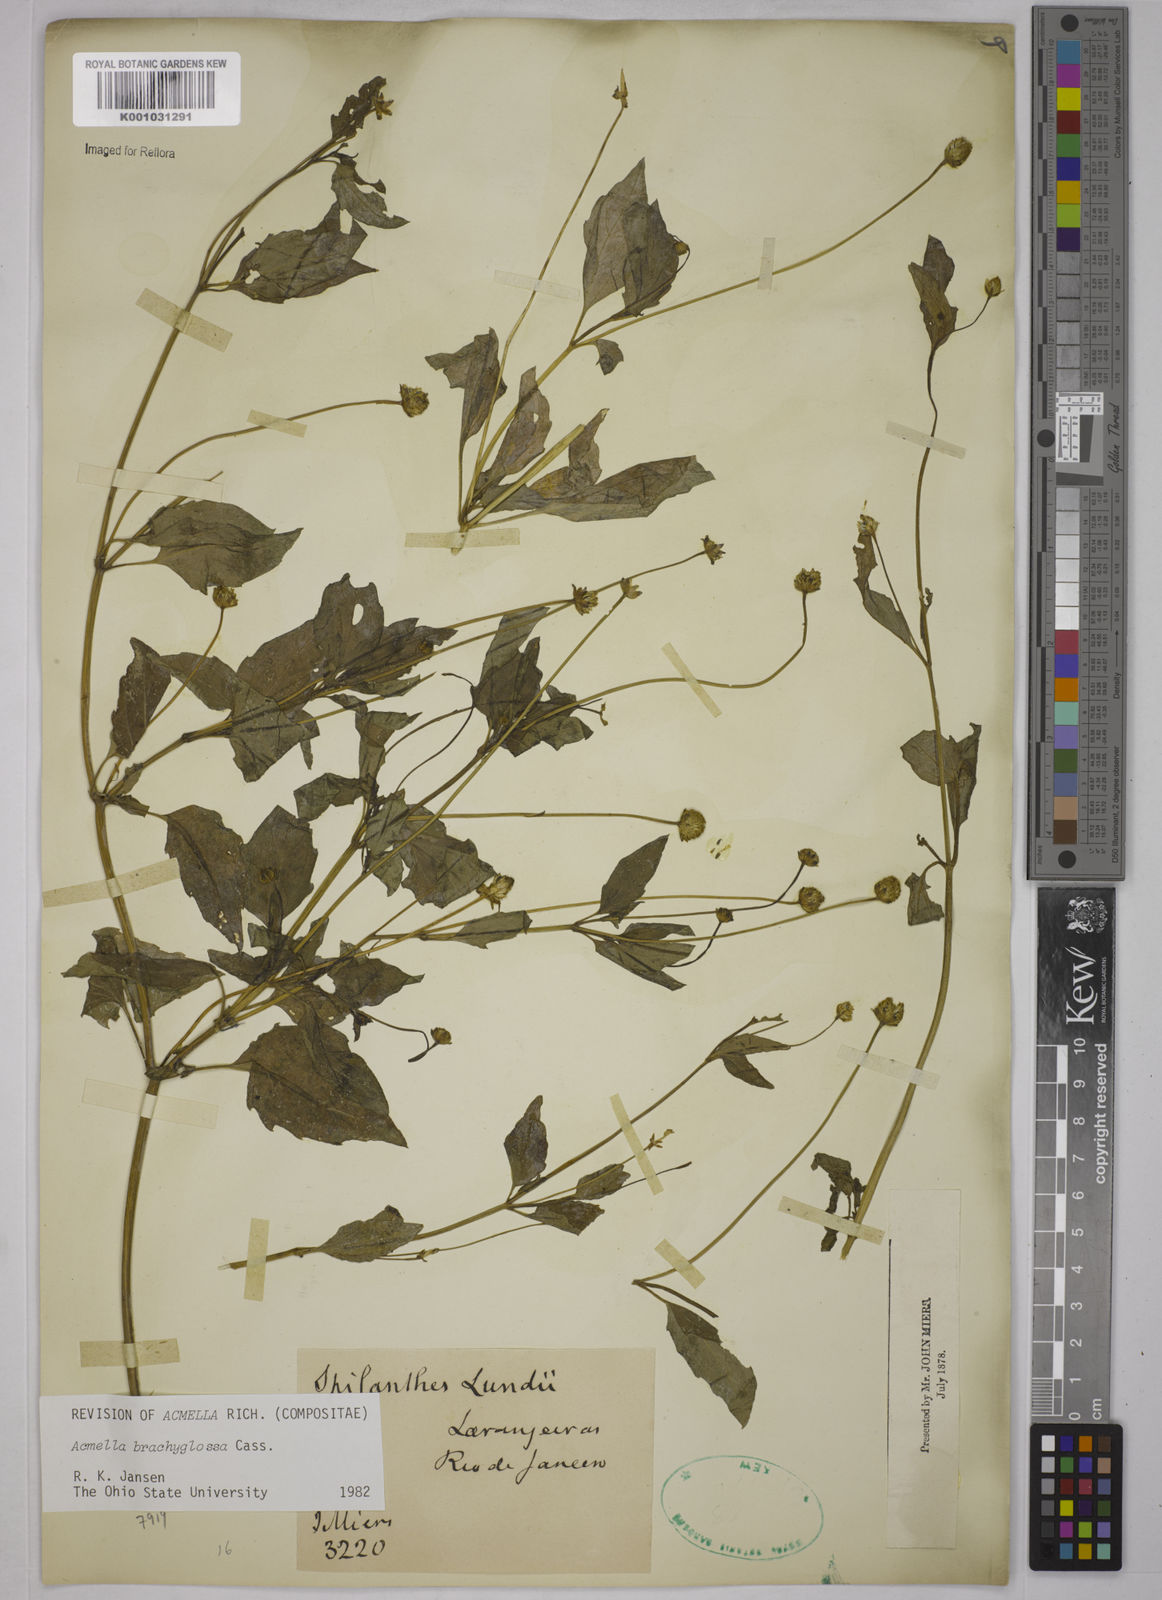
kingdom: Plantae
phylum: Tracheophyta
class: Magnoliopsida
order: Asterales
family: Asteraceae
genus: Acmella
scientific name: Acmella brachyglossa
